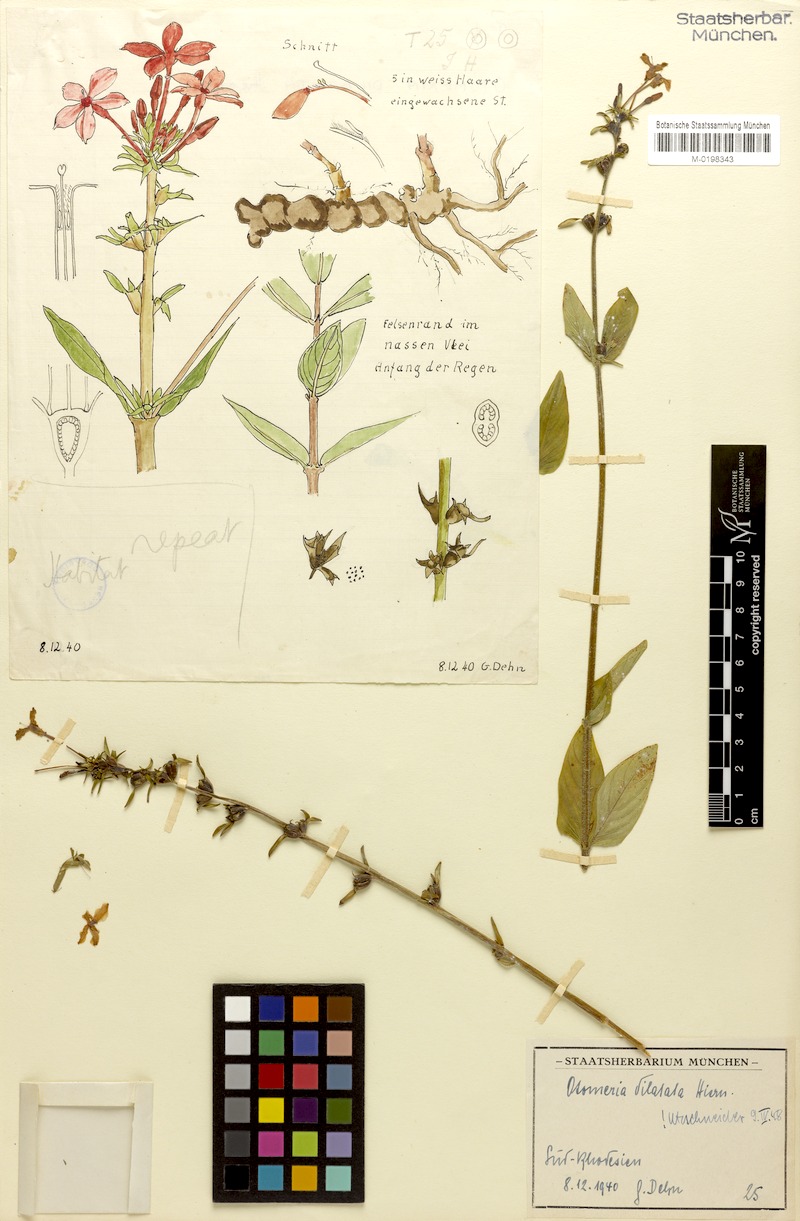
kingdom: Plantae
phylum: Tracheophyta
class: Magnoliopsida
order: Gentianales
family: Rubiaceae
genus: Otomeria
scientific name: Otomeria elatior
